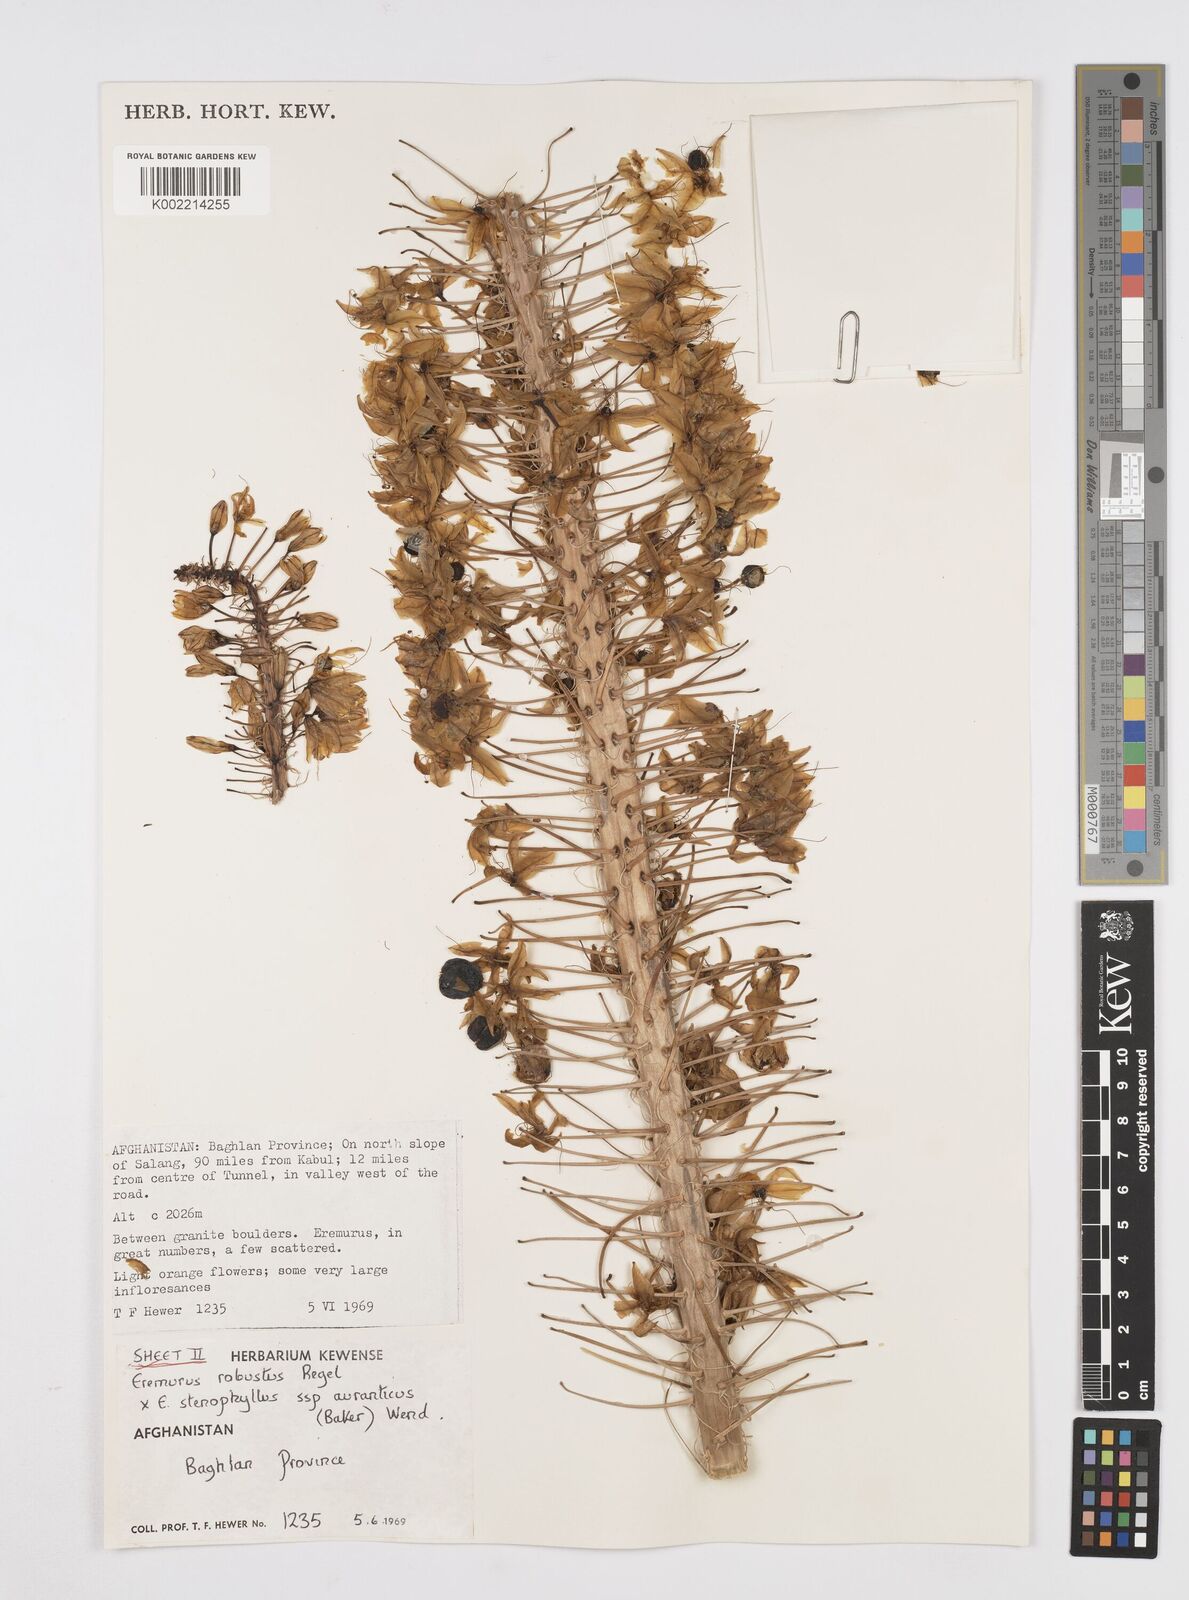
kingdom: Plantae
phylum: Tracheophyta
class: Liliopsida
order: Asparagales
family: Asphodelaceae
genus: Eremurus
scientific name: Eremurus stenophyllus
